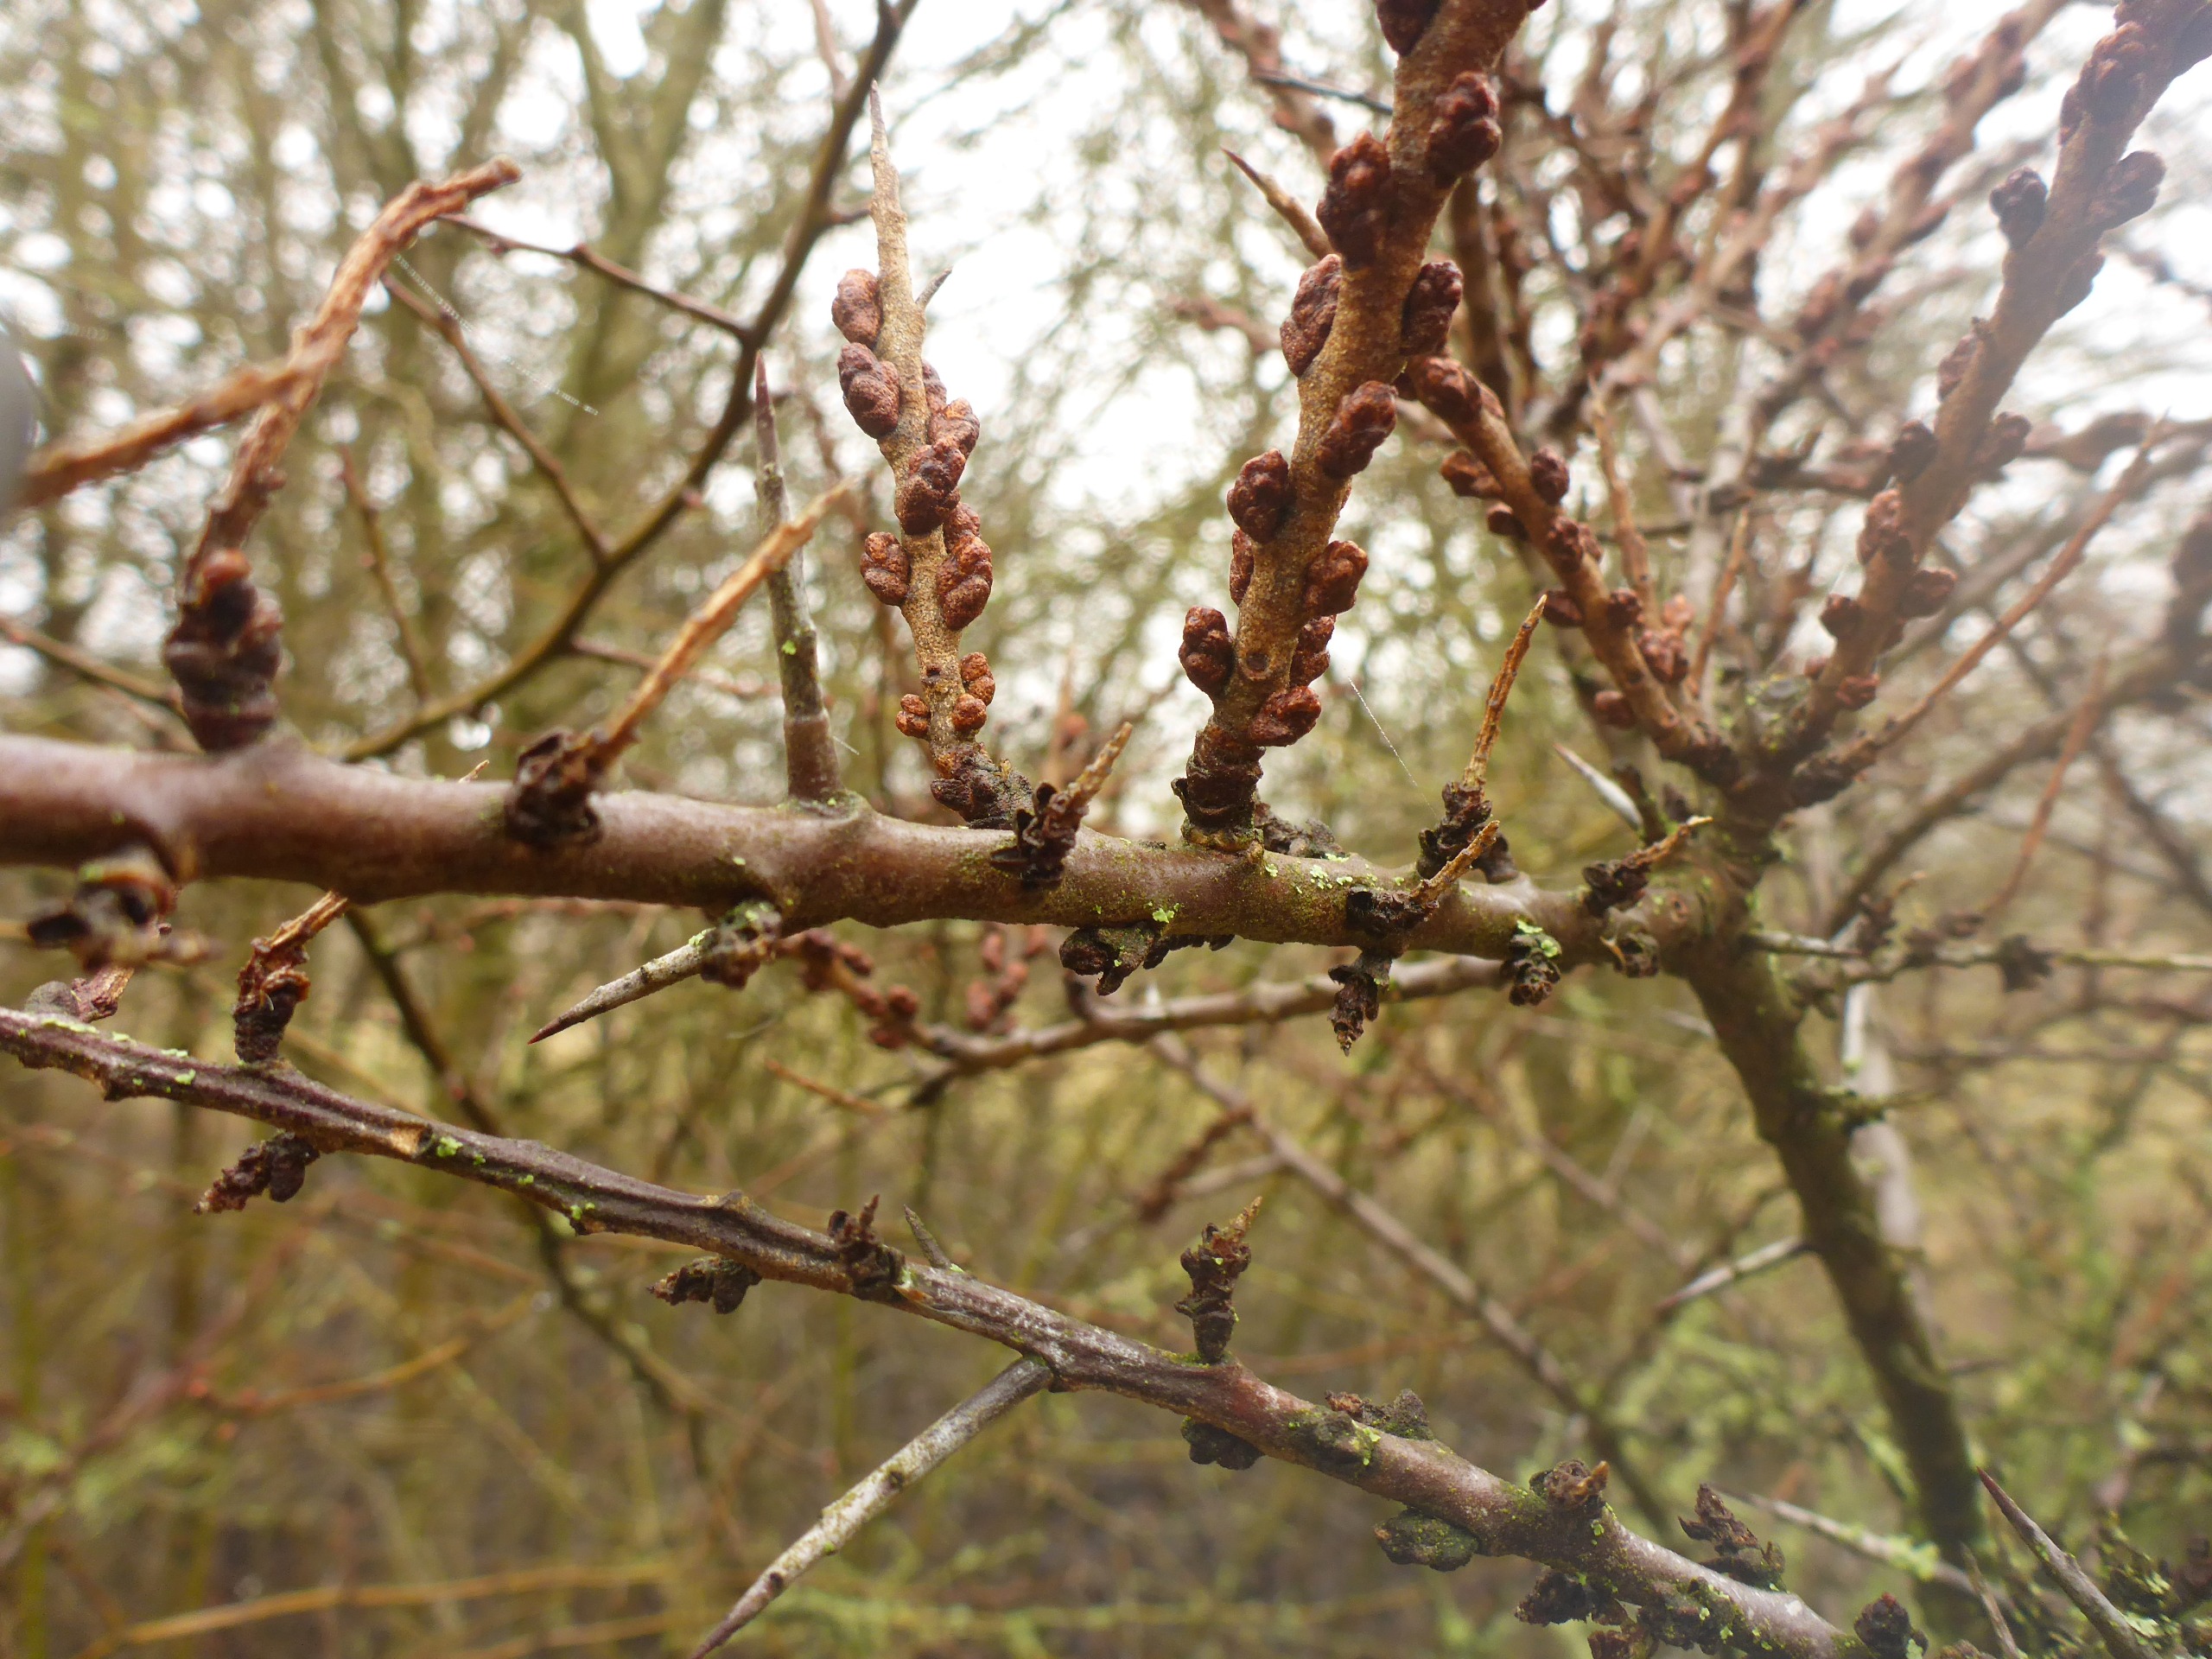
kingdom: Plantae
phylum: Tracheophyta
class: Magnoliopsida
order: Rosales
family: Elaeagnaceae
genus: Hippophae
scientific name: Hippophae rhamnoides
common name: Havtorn
